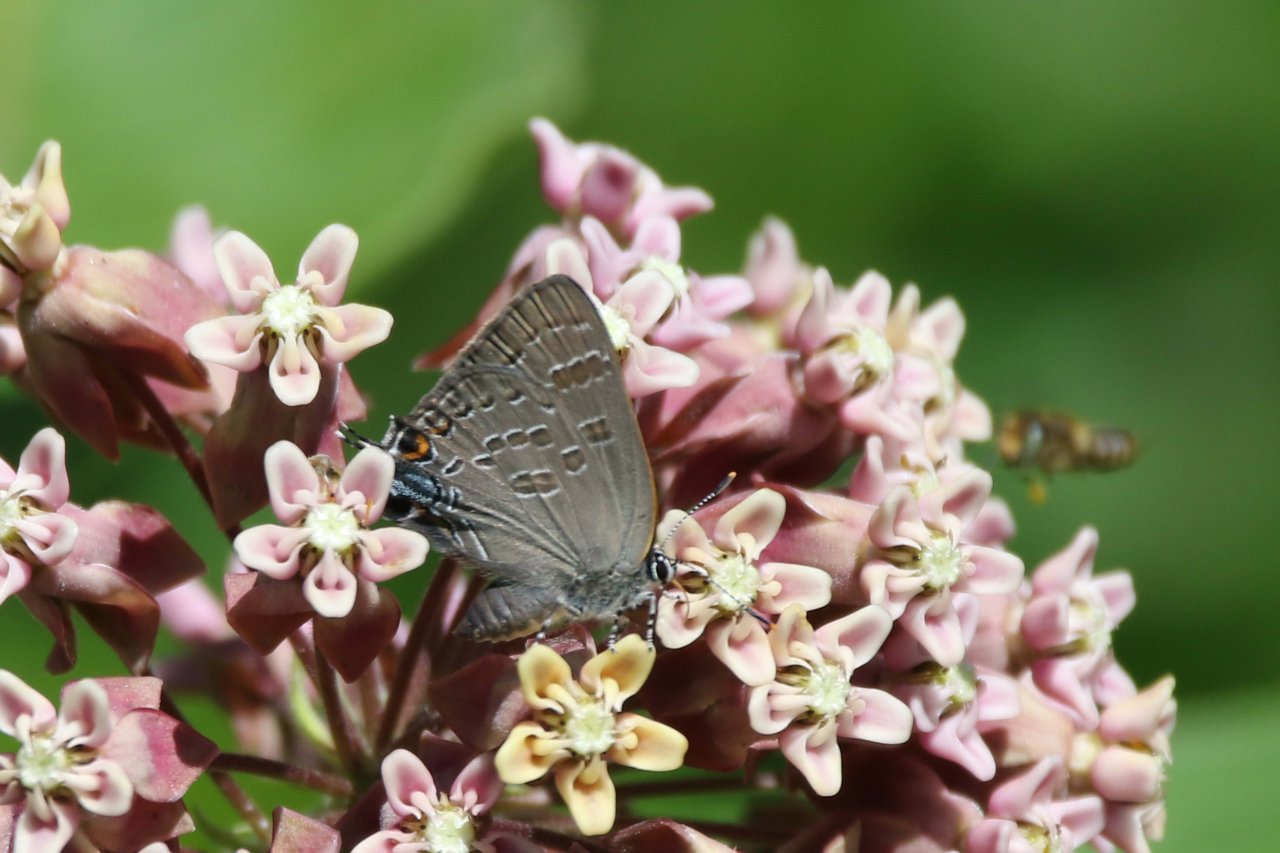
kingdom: Animalia
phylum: Arthropoda
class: Insecta
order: Lepidoptera
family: Lycaenidae
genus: Strymon
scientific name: Strymon caryaevorus
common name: Hickory Hairstreak
